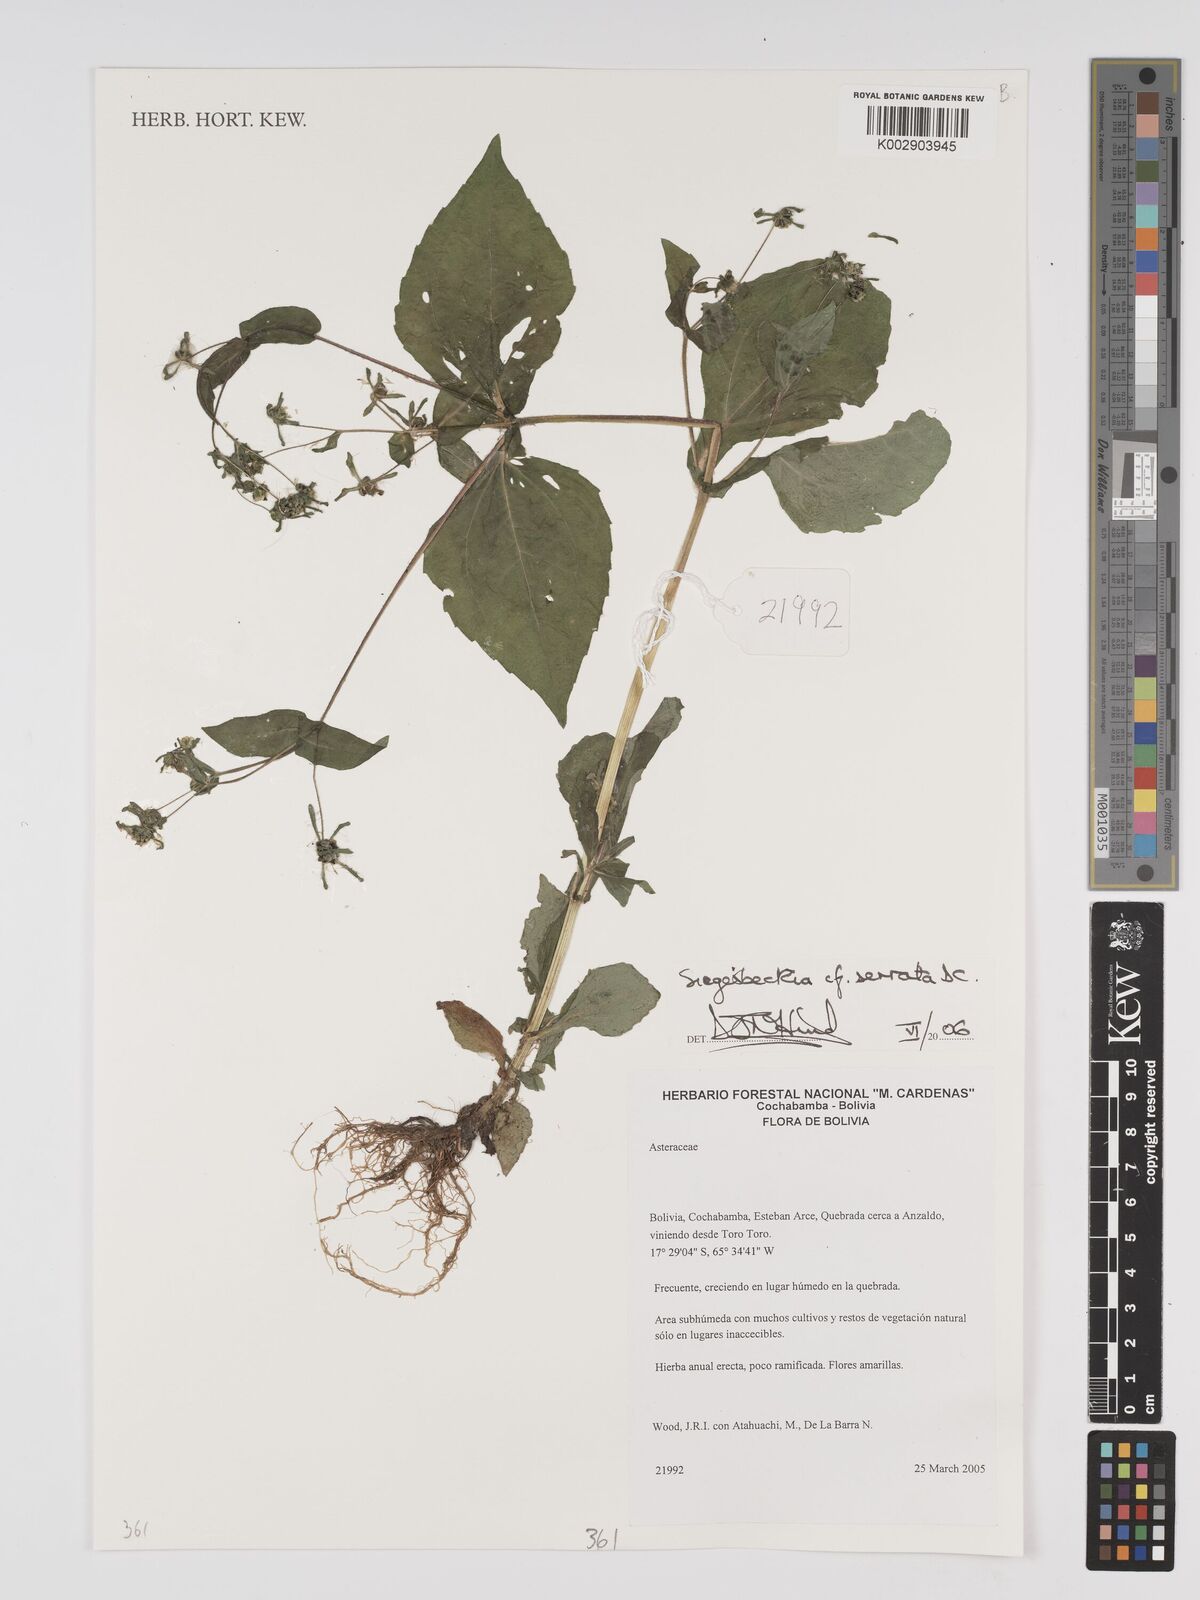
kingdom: Plantae
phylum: Tracheophyta
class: Magnoliopsida
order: Asterales
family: Asteraceae
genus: Sigesbeckia
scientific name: Sigesbeckia jorullensis
